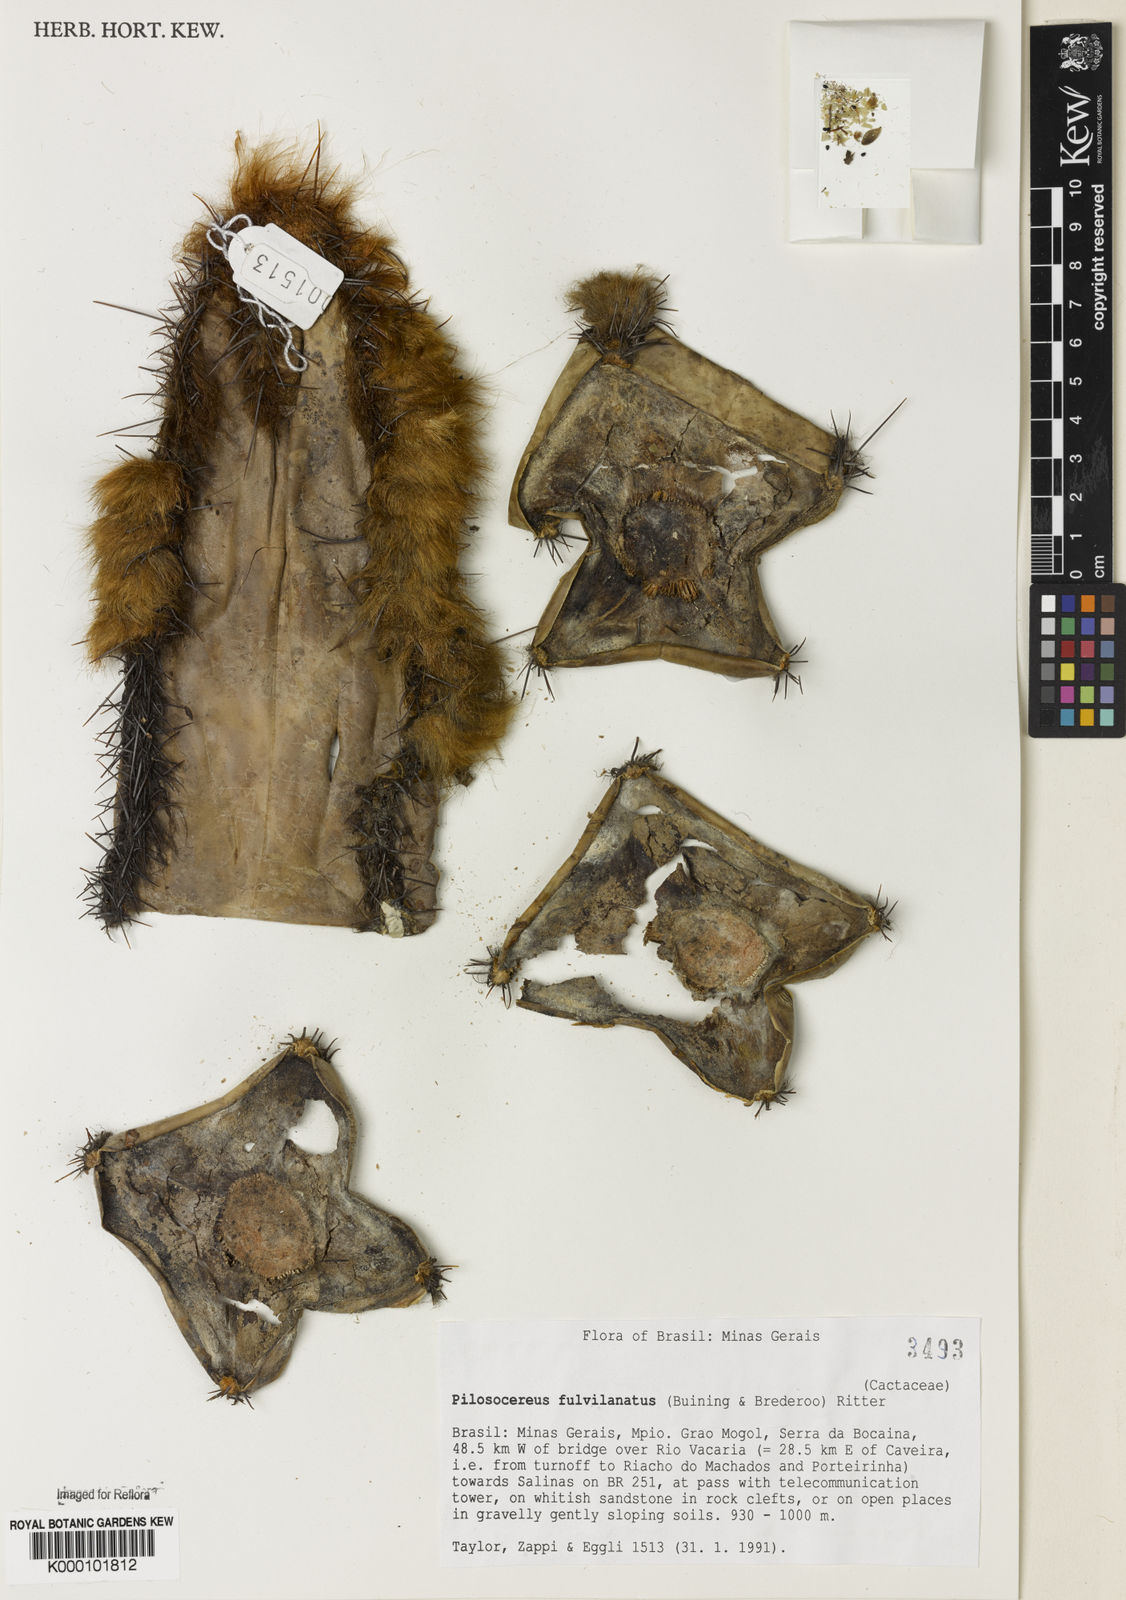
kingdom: Plantae
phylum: Tracheophyta
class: Magnoliopsida
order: Caryophyllales
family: Cactaceae
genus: Pilosocereus
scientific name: Pilosocereus fulvilanatus
